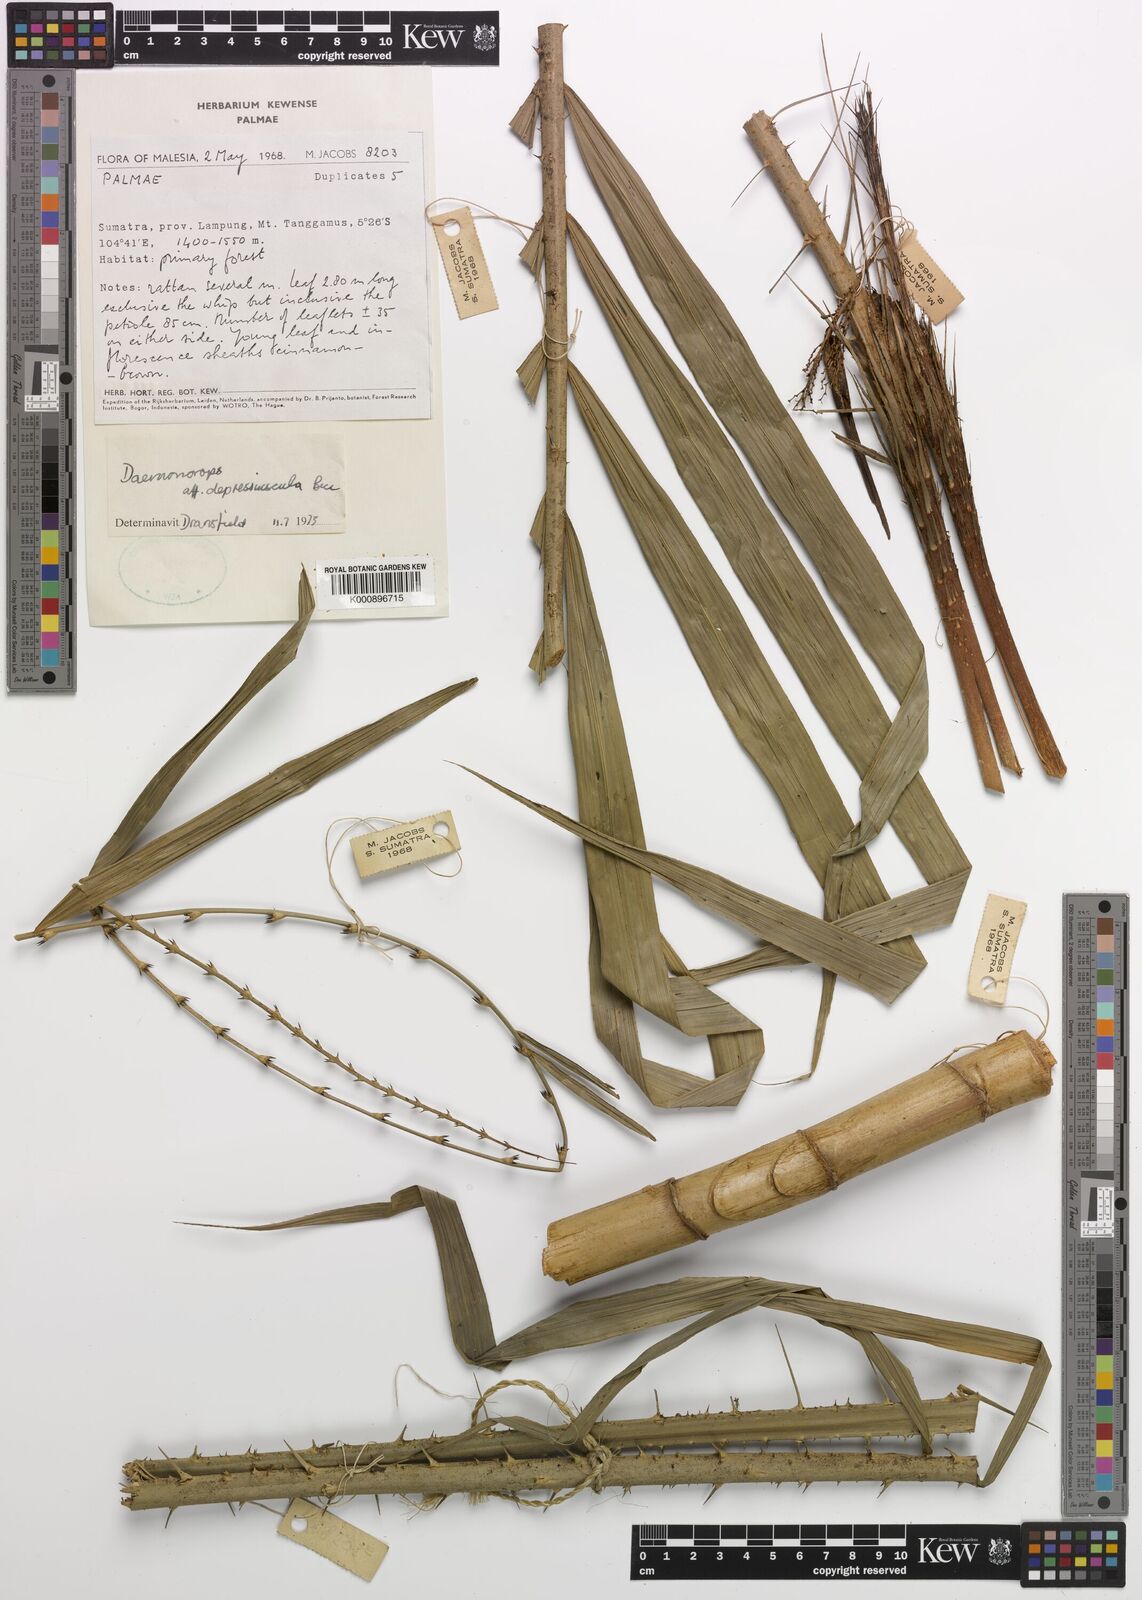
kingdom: Plantae
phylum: Tracheophyta
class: Liliopsida
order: Arecales
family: Arecaceae
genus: Daemonorops
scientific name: Daemonorops
